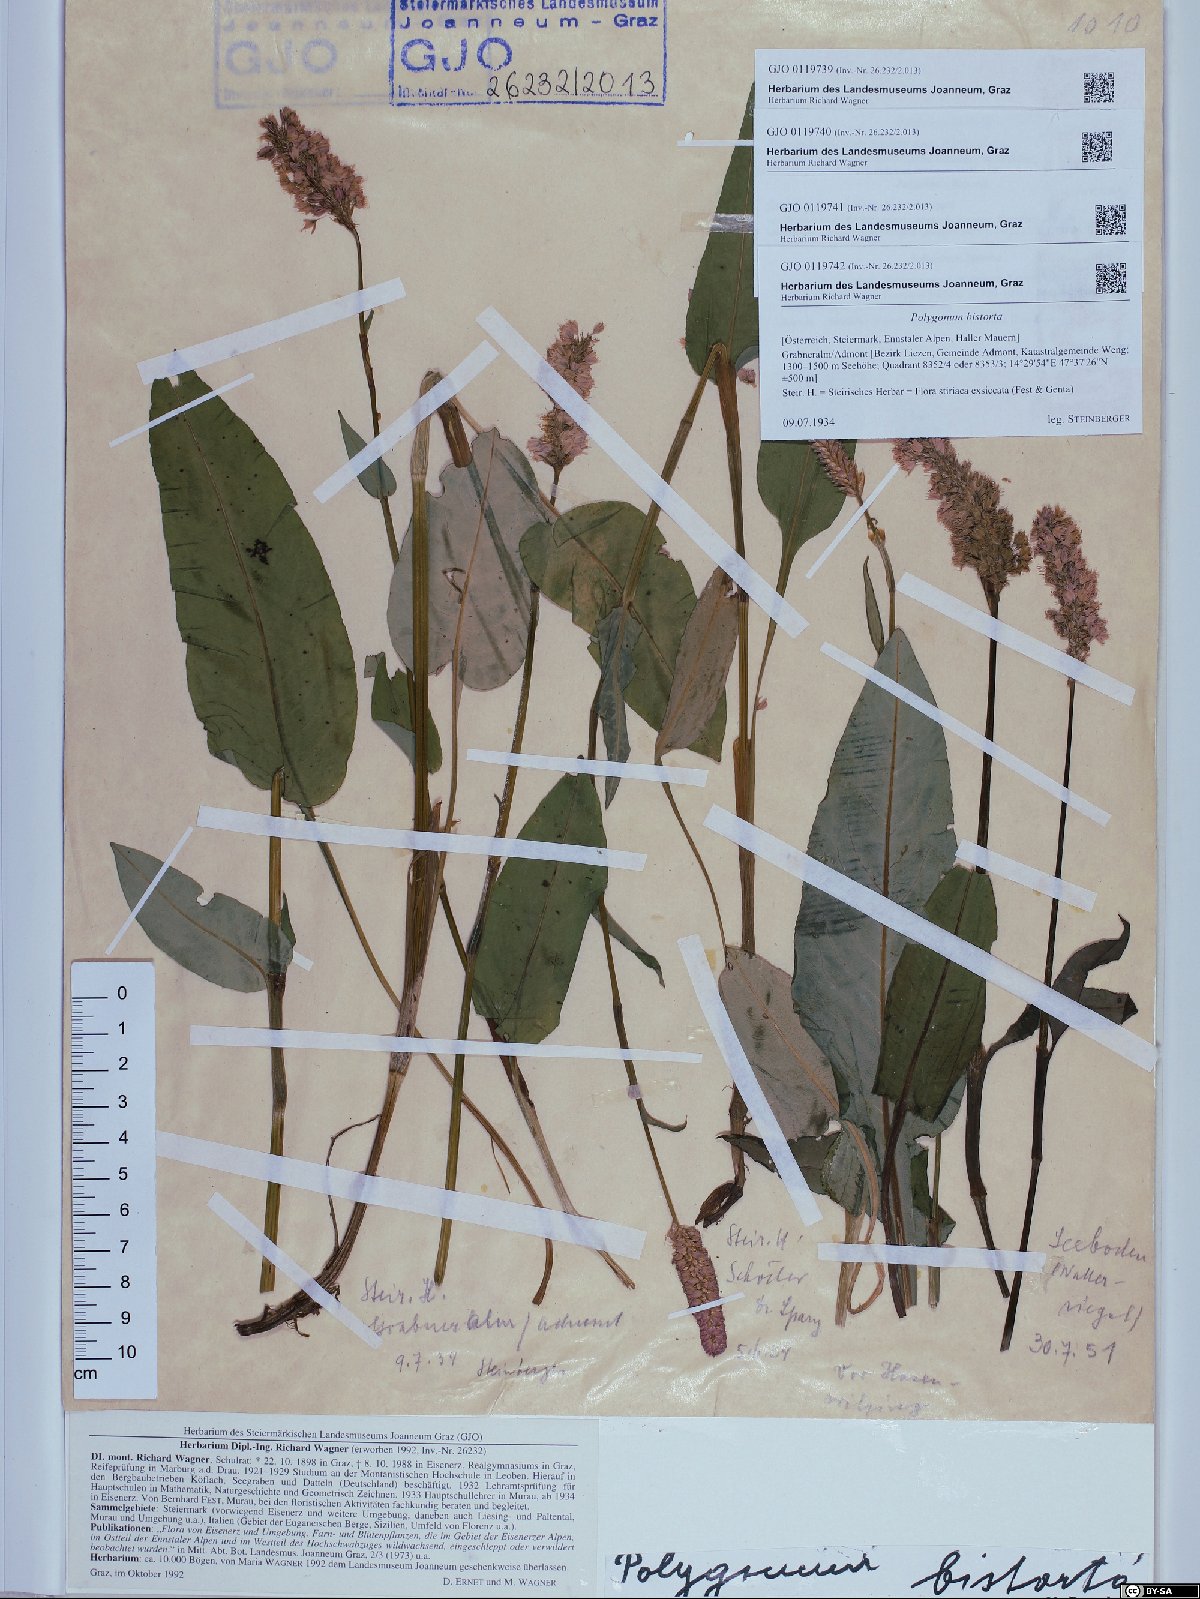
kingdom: Plantae
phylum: Tracheophyta
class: Magnoliopsida
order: Caryophyllales
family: Polygonaceae
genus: Bistorta
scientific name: Bistorta officinalis
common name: Common bistort
